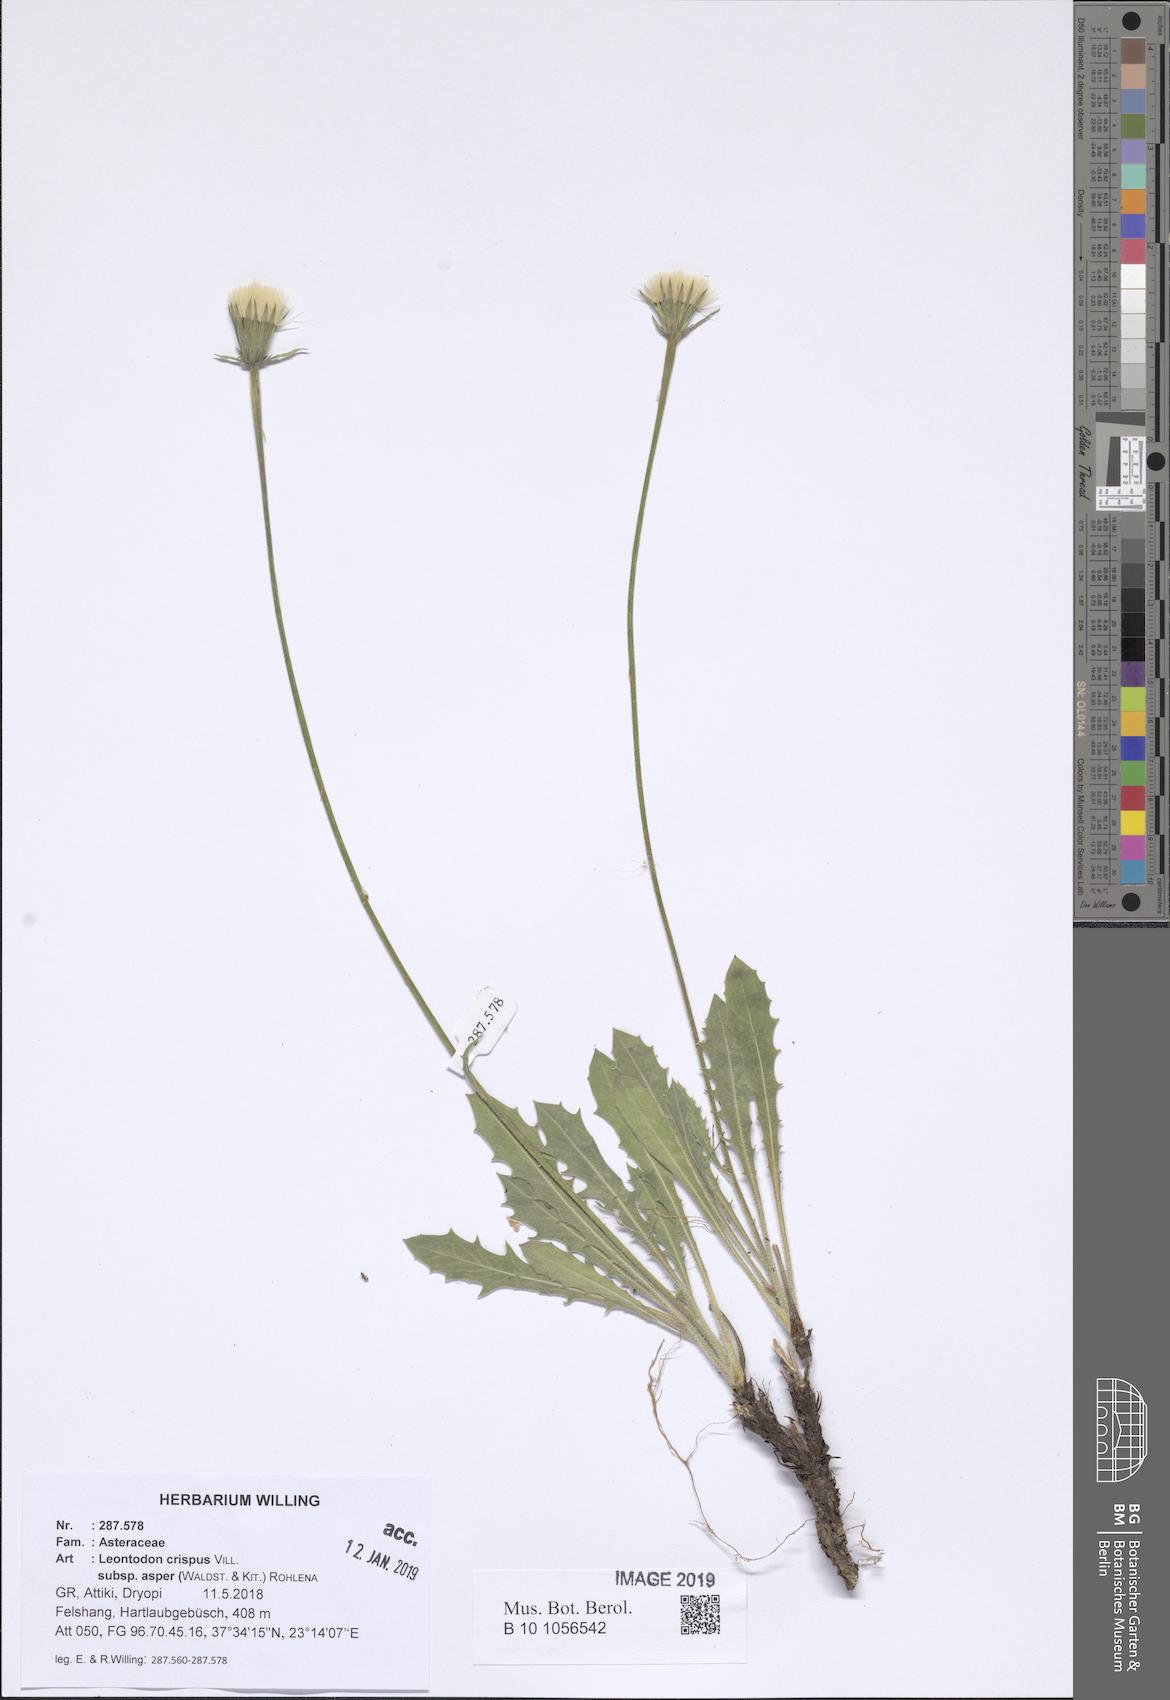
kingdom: Plantae
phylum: Tracheophyta
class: Magnoliopsida
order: Asterales
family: Asteraceae
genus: Leontodon
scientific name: Leontodon biscutellifolius
